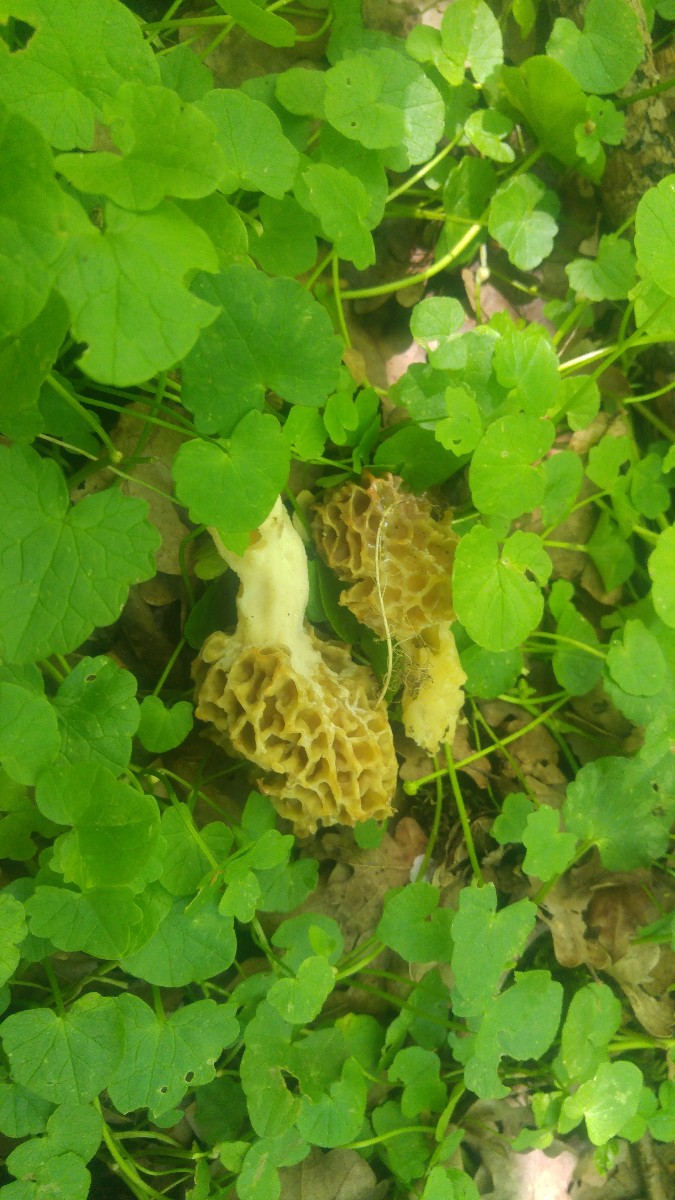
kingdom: Fungi
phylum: Ascomycota
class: Pezizomycetes
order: Pezizales
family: Morchellaceae
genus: Morchella
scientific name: Morchella esculenta
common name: spiselig morkel
